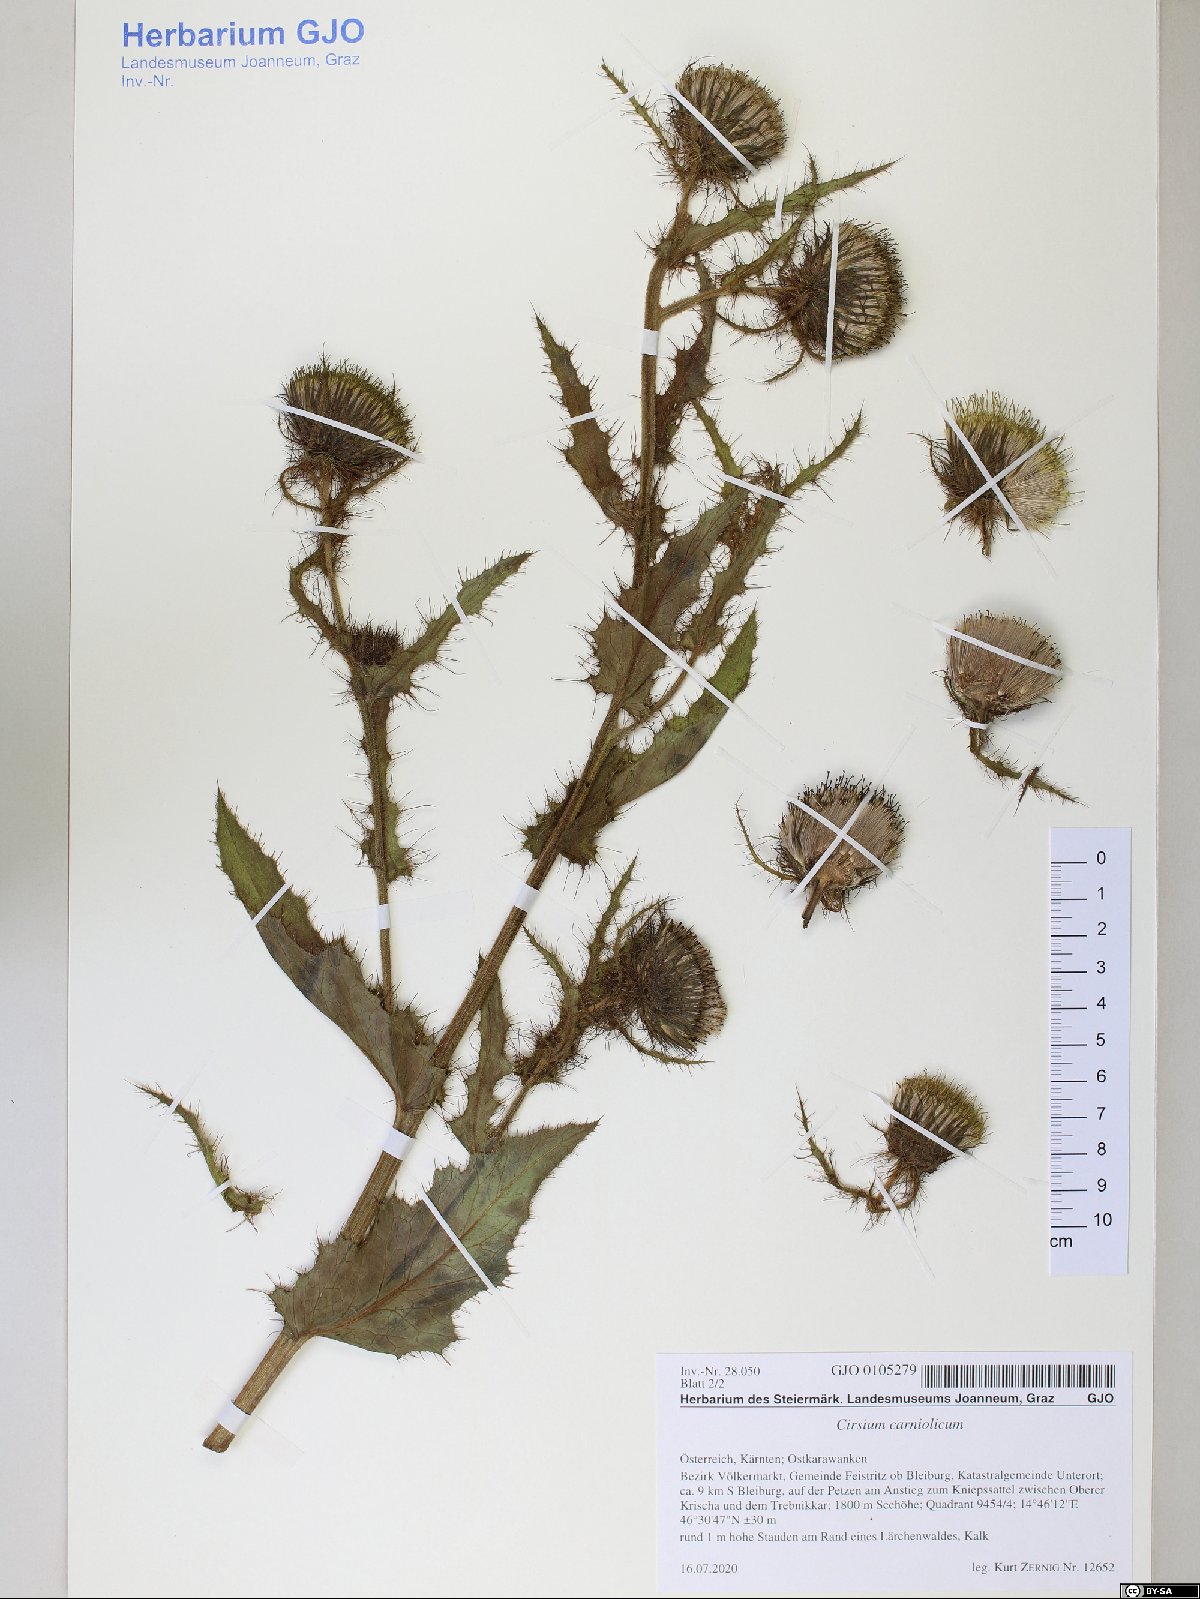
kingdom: Plantae
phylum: Tracheophyta
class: Magnoliopsida
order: Asterales
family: Asteraceae
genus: Cirsium
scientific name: Cirsium carniolicum
